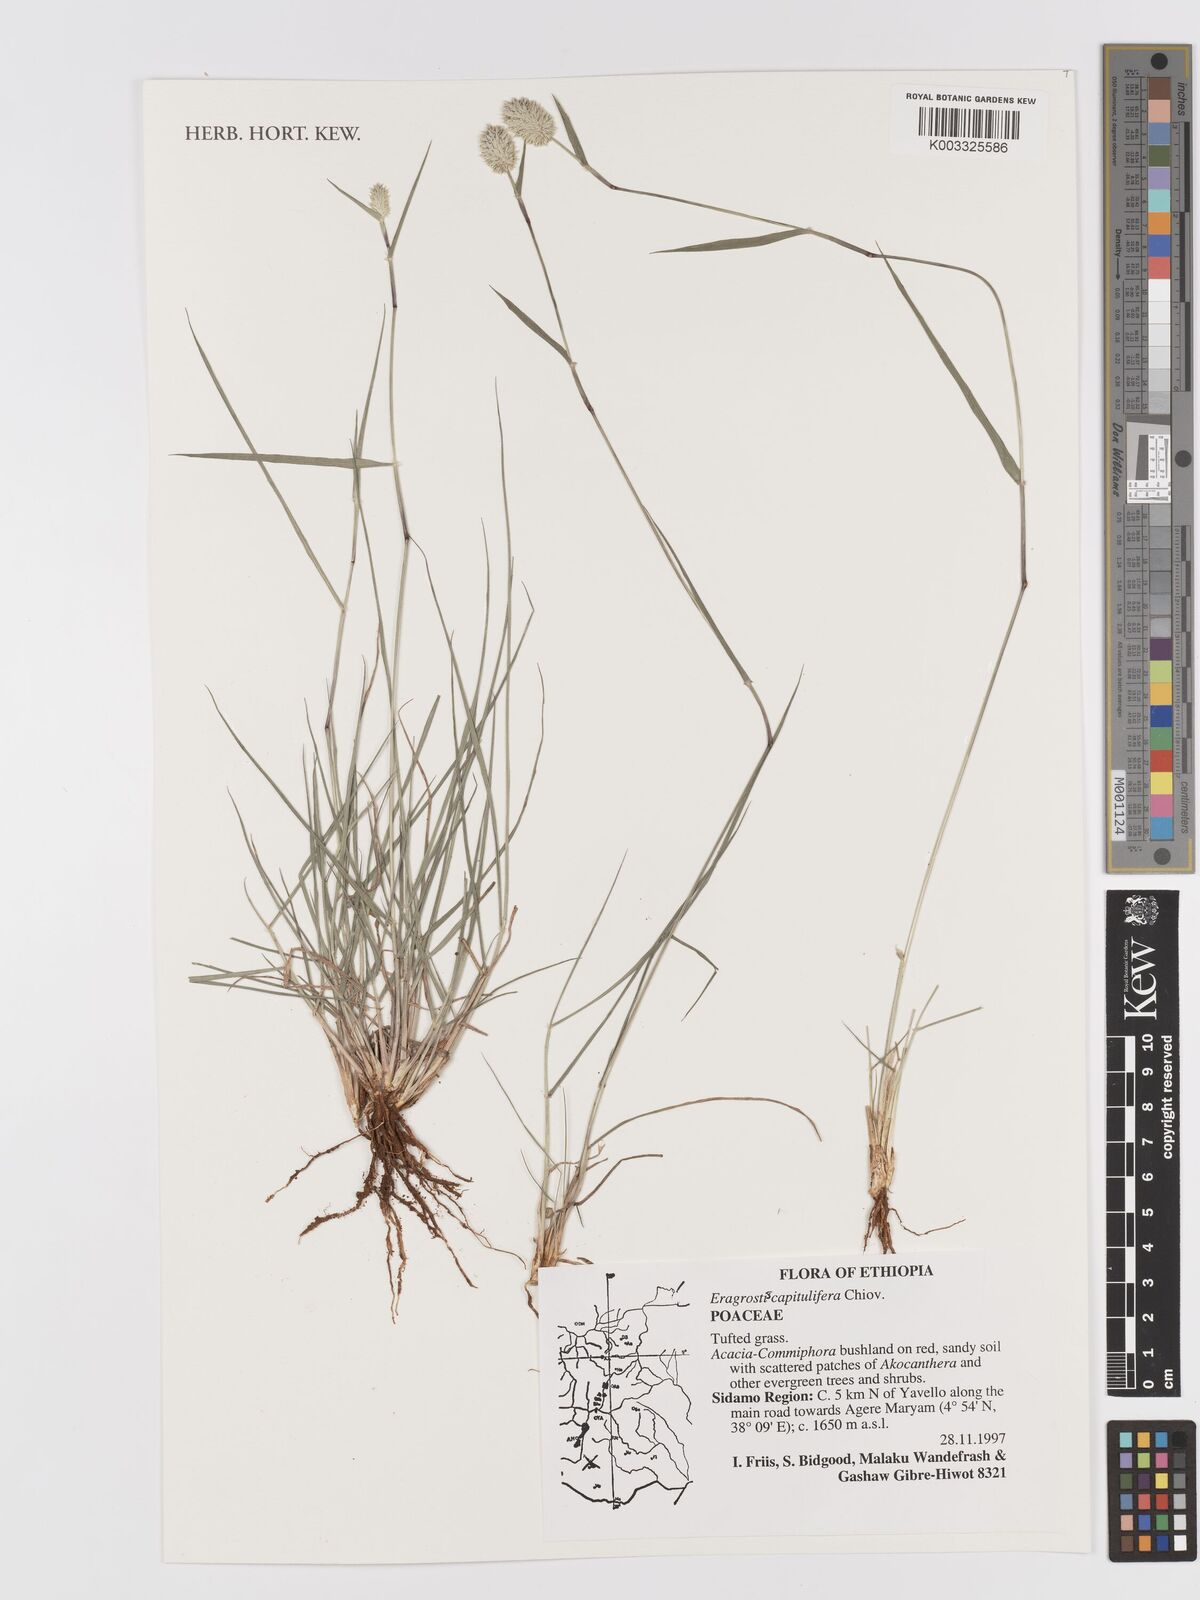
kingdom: Plantae
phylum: Tracheophyta
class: Liliopsida
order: Poales
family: Poaceae
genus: Eragrostis
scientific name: Eragrostis capitulifera
